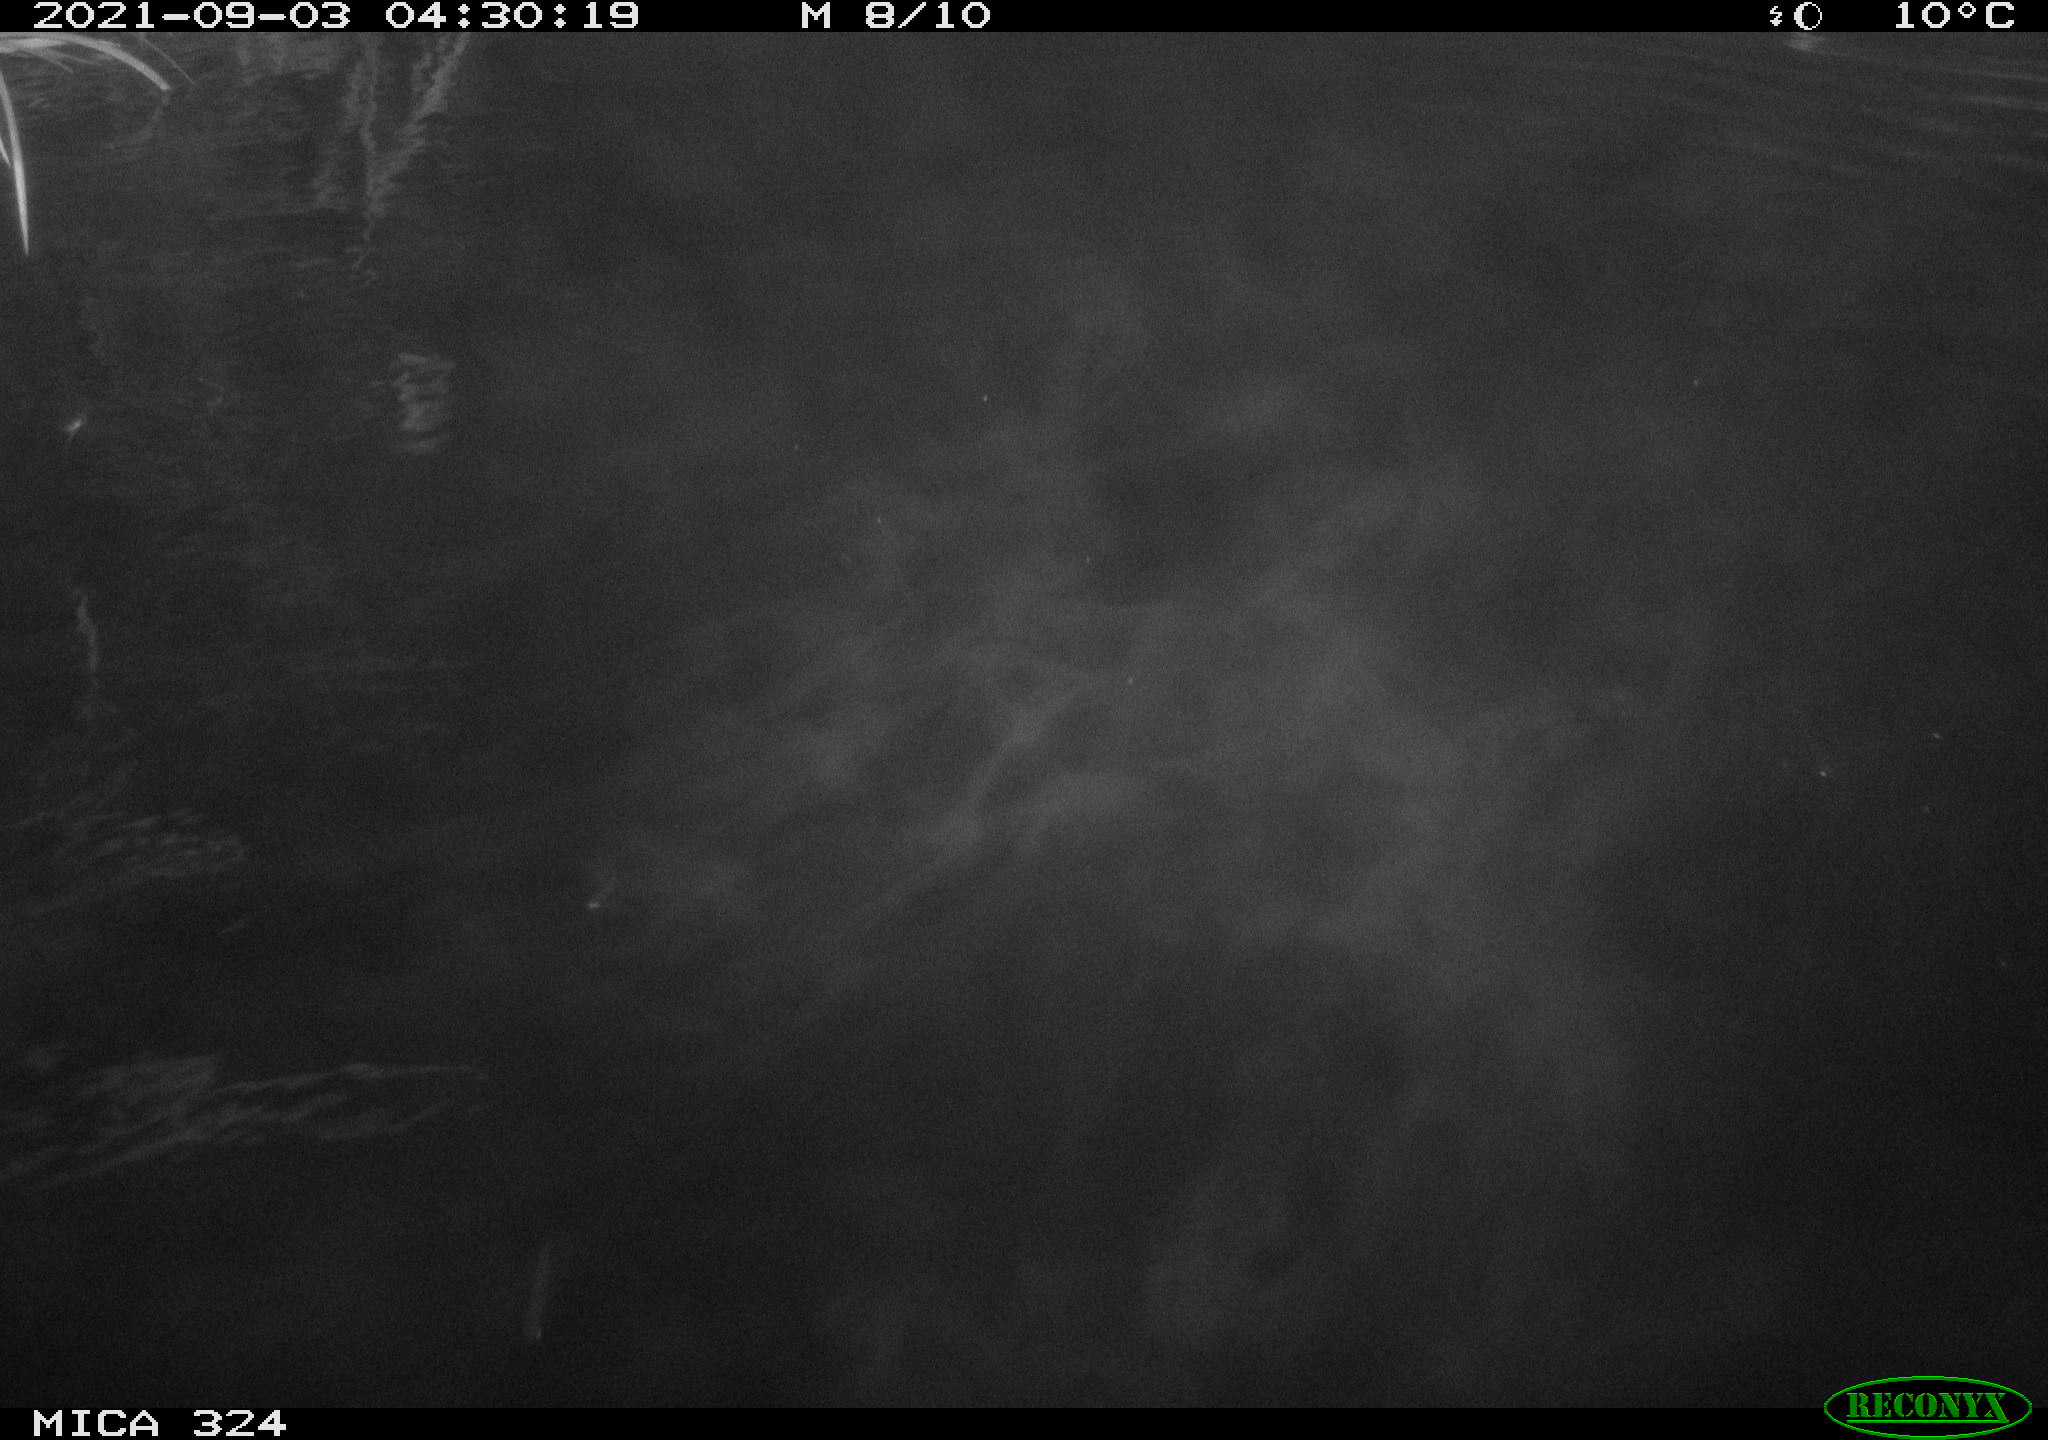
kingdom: Animalia
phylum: Chordata
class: Mammalia
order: Rodentia
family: Cricetidae
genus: Ondatra
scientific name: Ondatra zibethicus
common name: Muskrat
